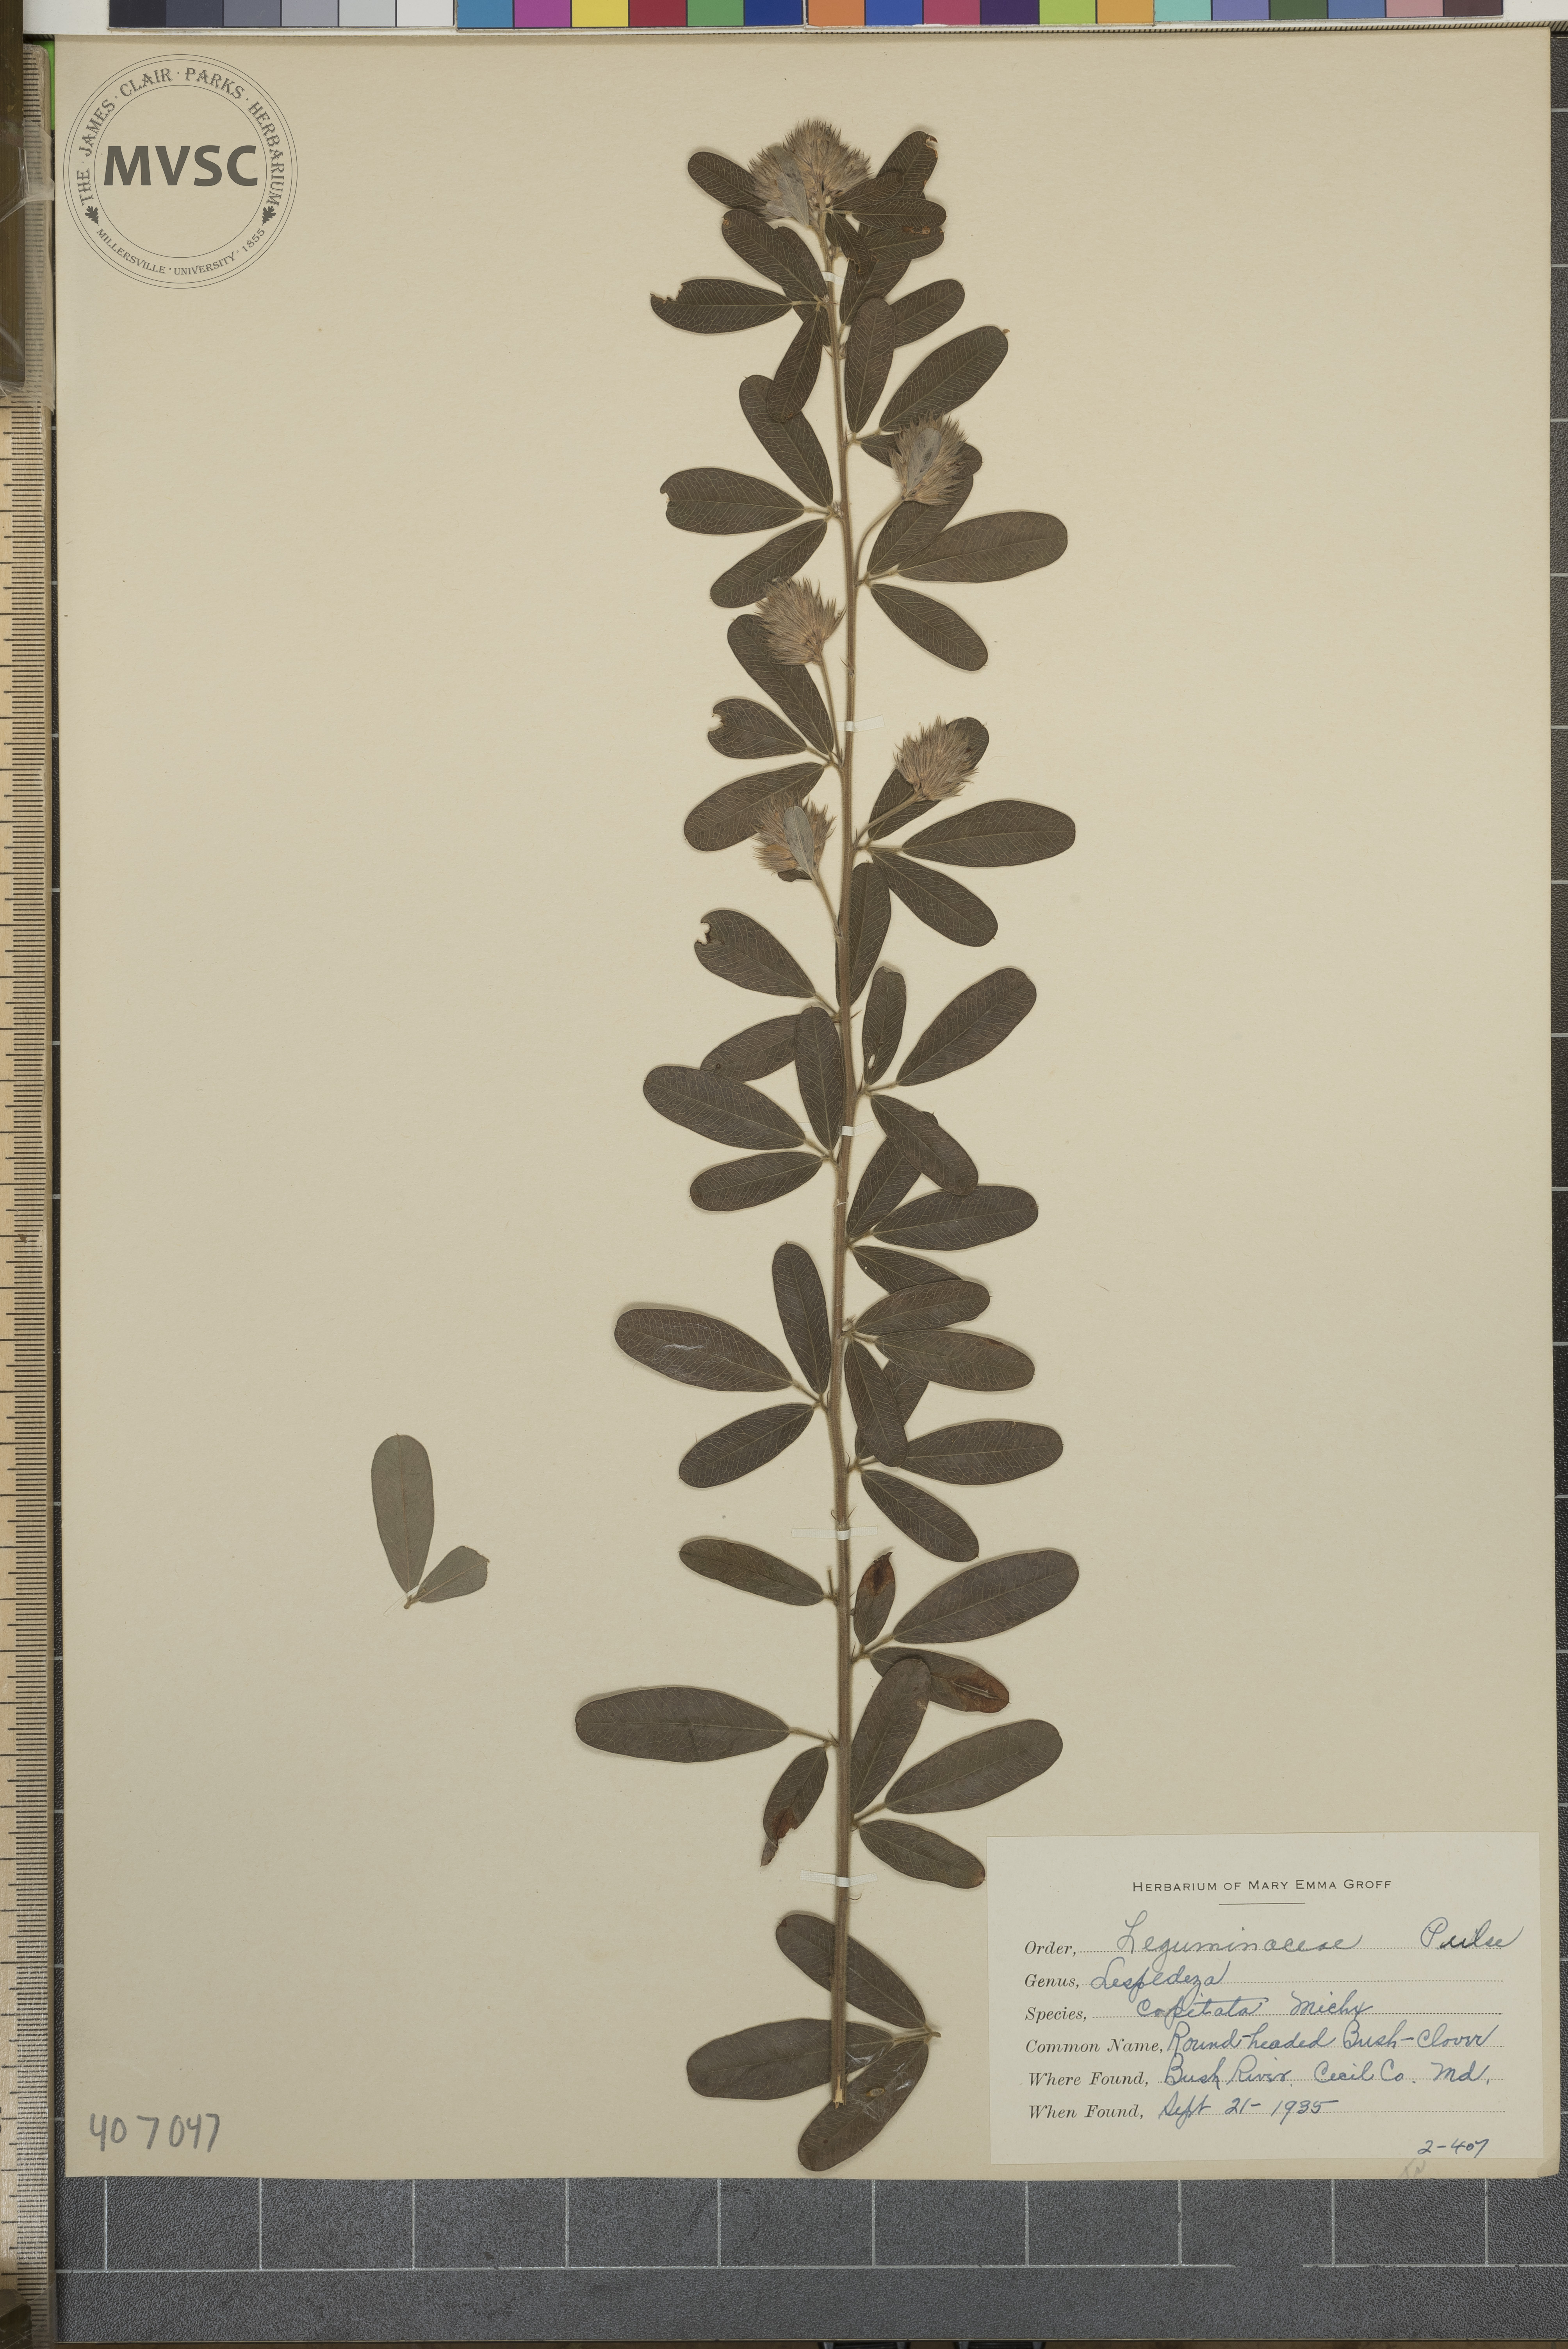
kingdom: Plantae
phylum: Tracheophyta
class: Magnoliopsida
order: Fabales
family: Fabaceae
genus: Lespedeza
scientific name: Lespedeza capitata
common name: Round-headed Bush-clover
